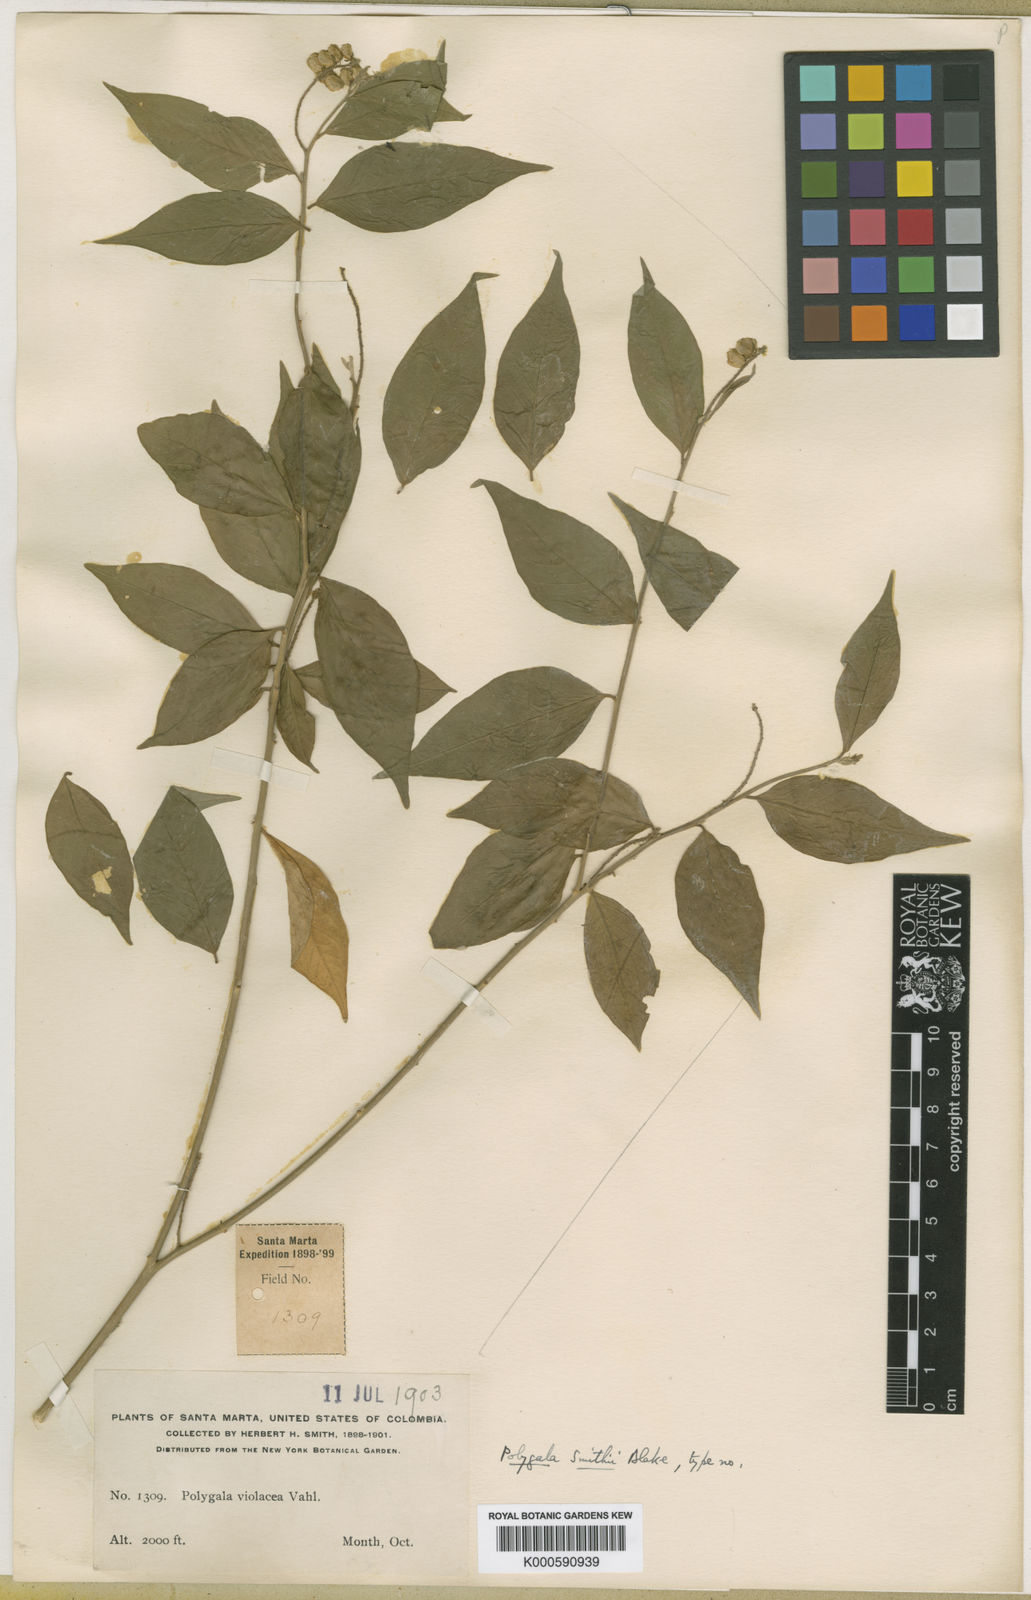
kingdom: Plantae
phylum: Tracheophyta
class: Magnoliopsida
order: Fabales
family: Polygalaceae
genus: Asemeia
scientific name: Asemeia acuminata
